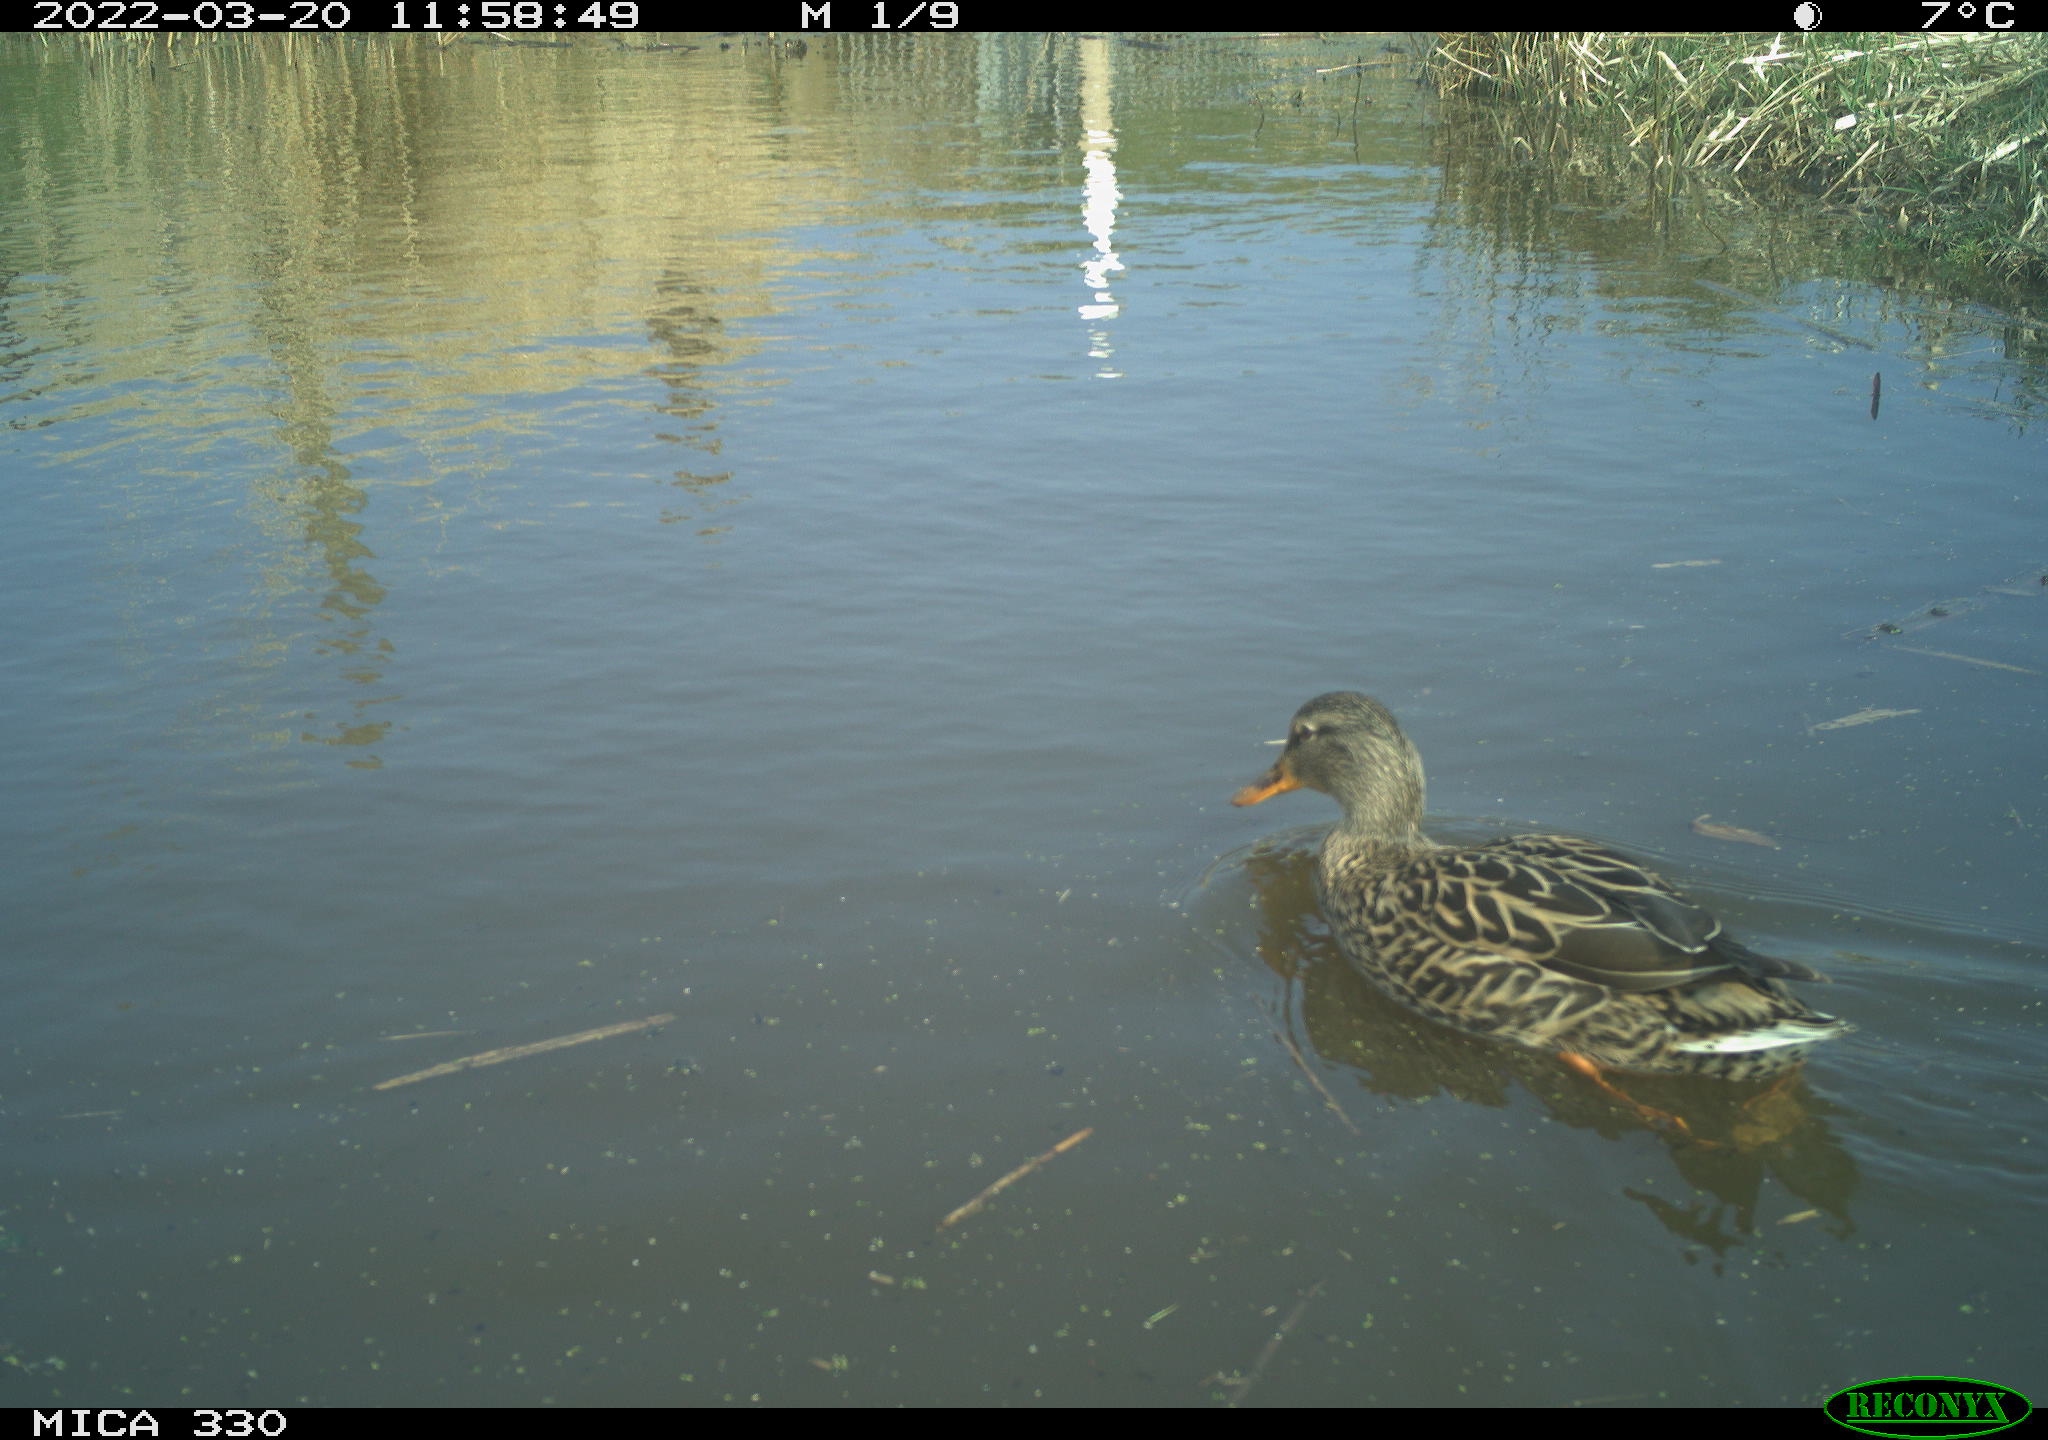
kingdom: Animalia
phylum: Chordata
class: Aves
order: Anseriformes
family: Anatidae
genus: Anas
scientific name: Anas platyrhynchos
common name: Mallard
